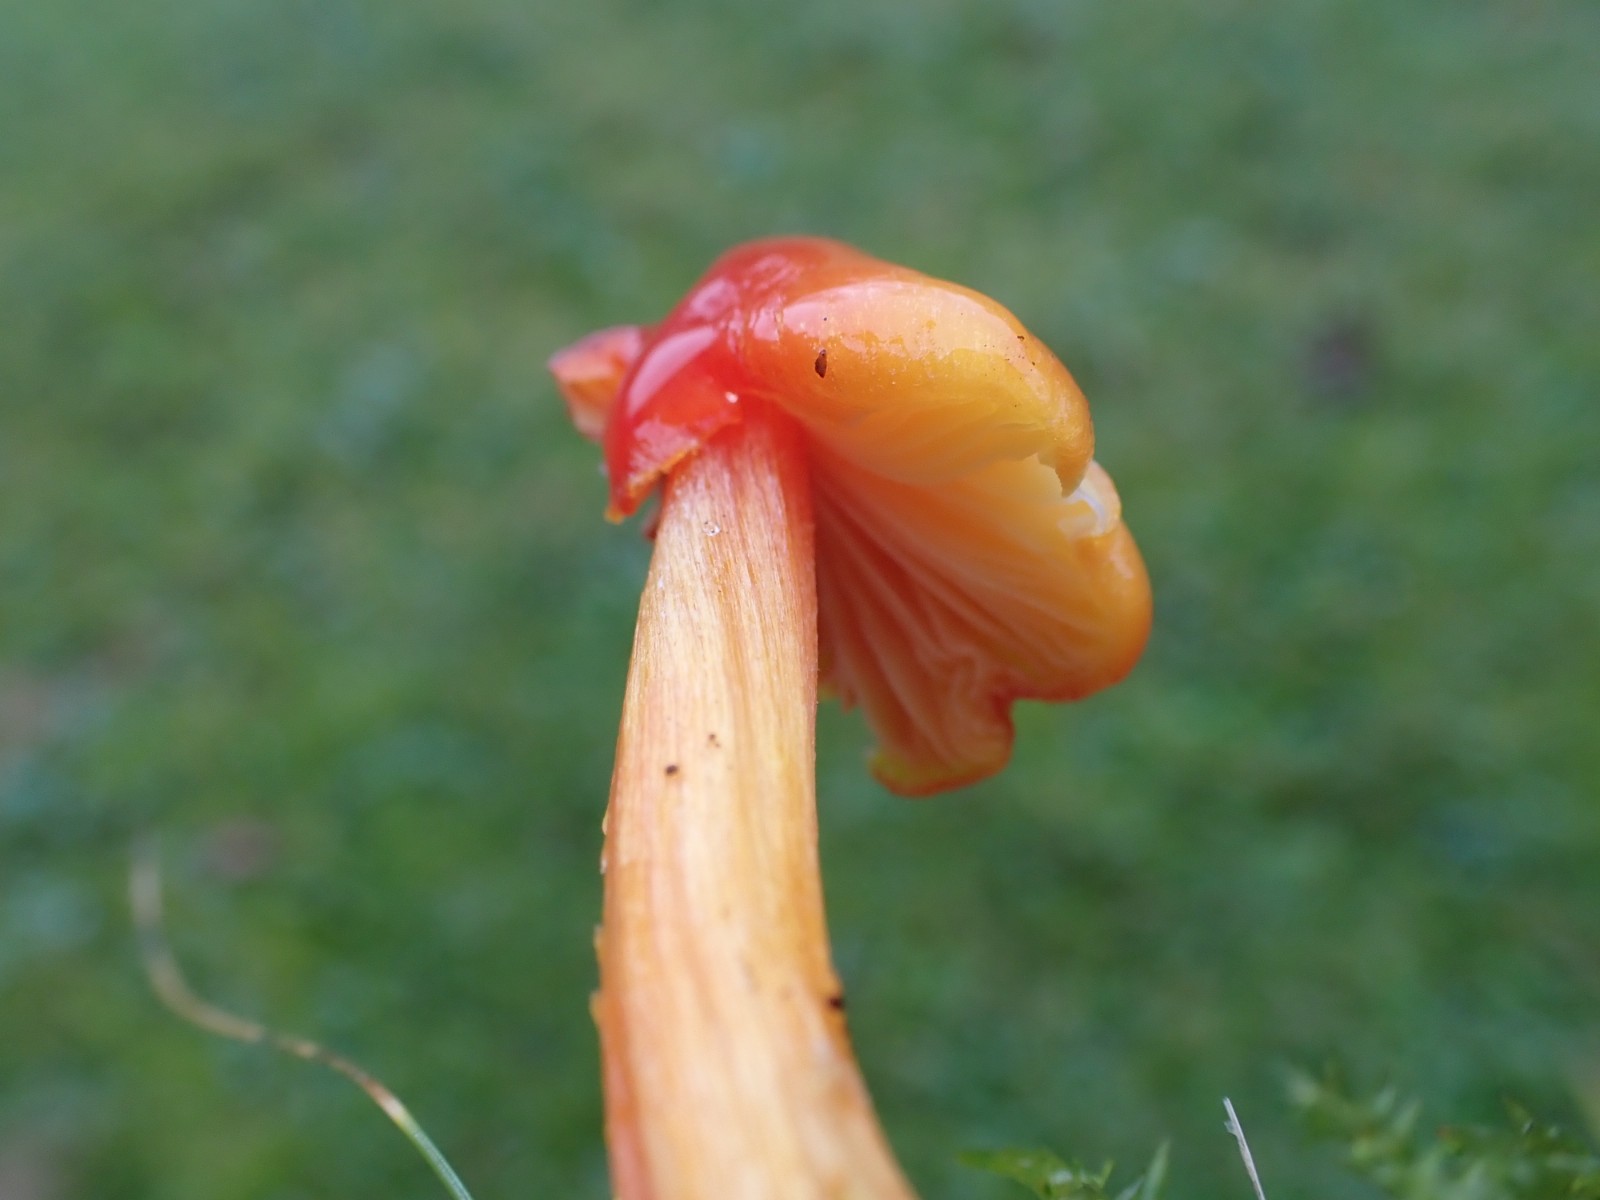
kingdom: Fungi
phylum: Basidiomycota
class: Agaricomycetes
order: Agaricales
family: Hygrophoraceae
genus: Hygrocybe
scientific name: Hygrocybe
